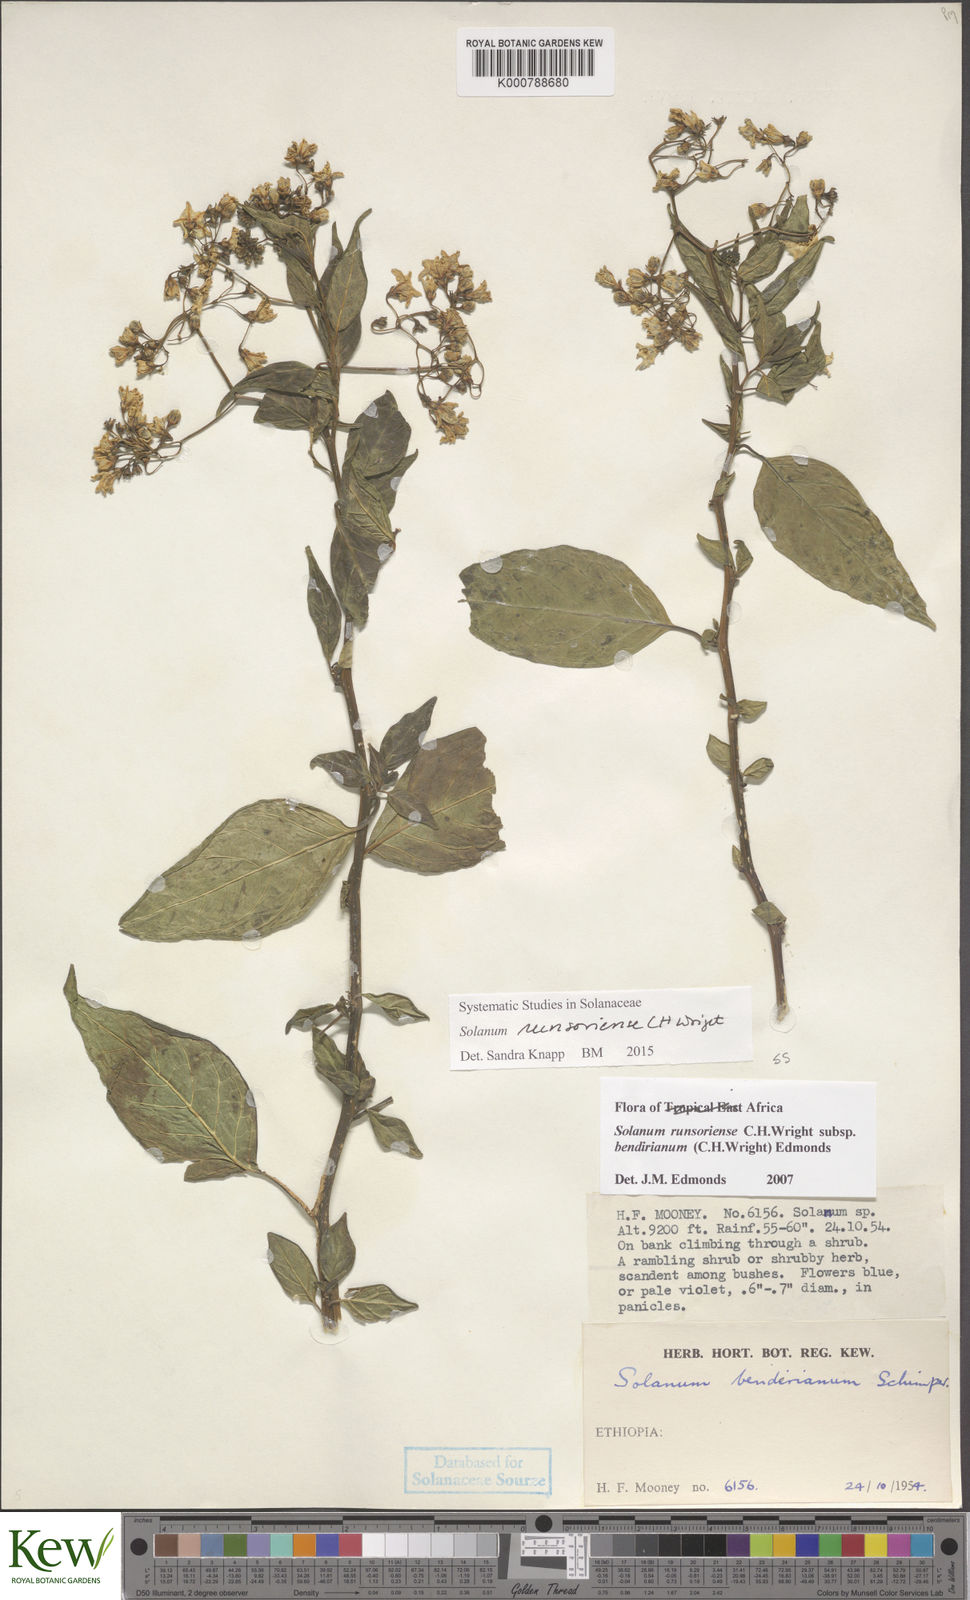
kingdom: Plantae
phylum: Tracheophyta
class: Magnoliopsida
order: Solanales
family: Solanaceae
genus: Solanum
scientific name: Solanum runsoriense
